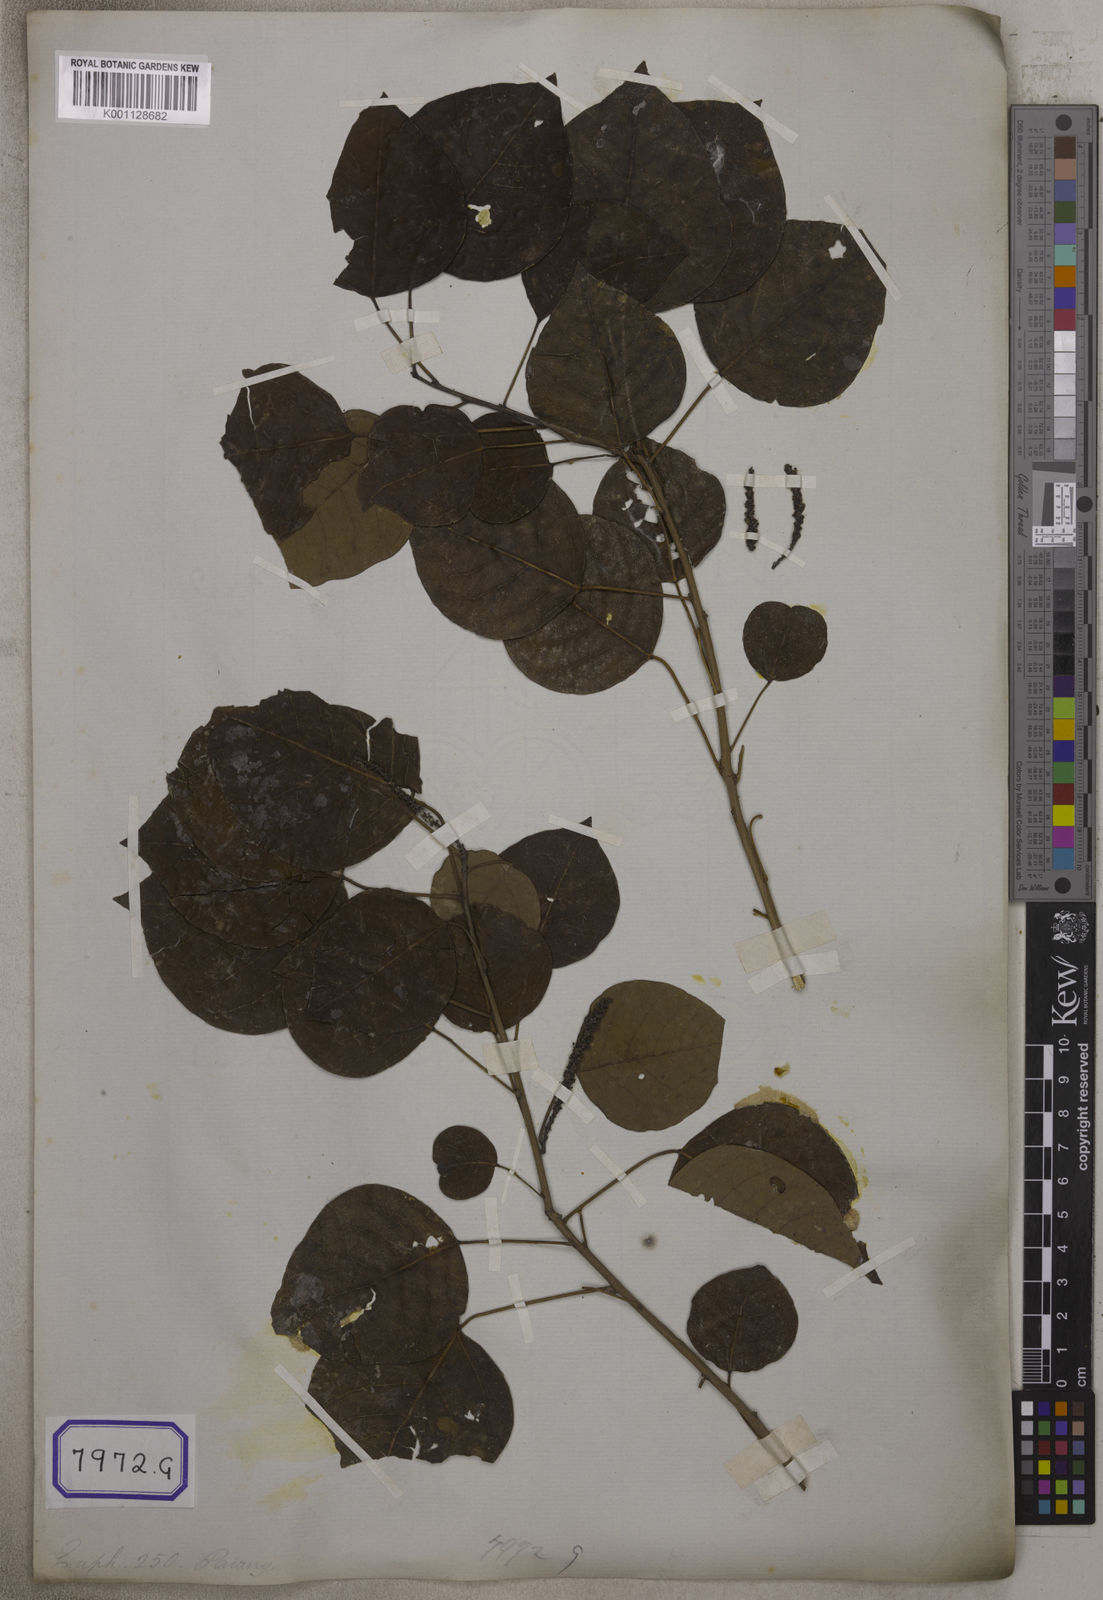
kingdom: Plantae
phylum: Tracheophyta
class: Magnoliopsida
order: Malpighiales
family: Euphorbiaceae
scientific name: Euphorbiaceae
